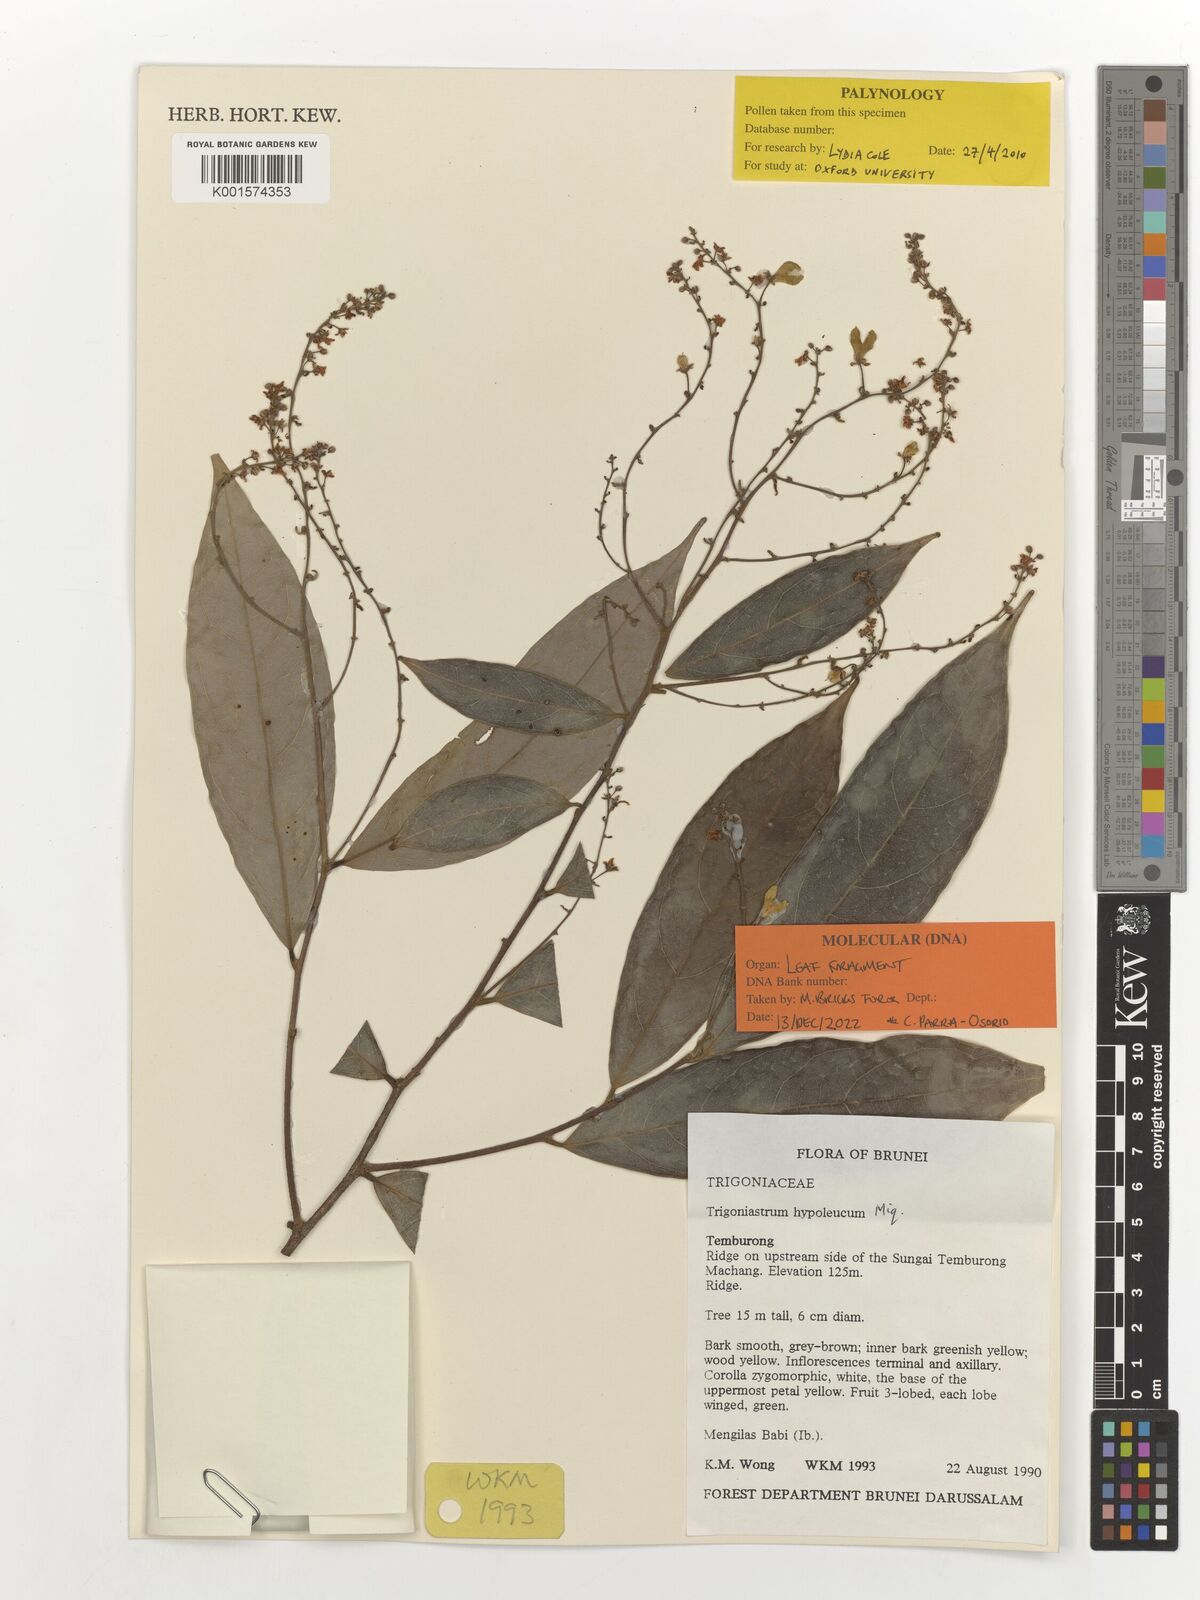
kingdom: Plantae
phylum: Tracheophyta
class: Magnoliopsida
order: Malpighiales
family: Trigoniaceae
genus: Trigoniastrum
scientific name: Trigoniastrum hypoleucum
